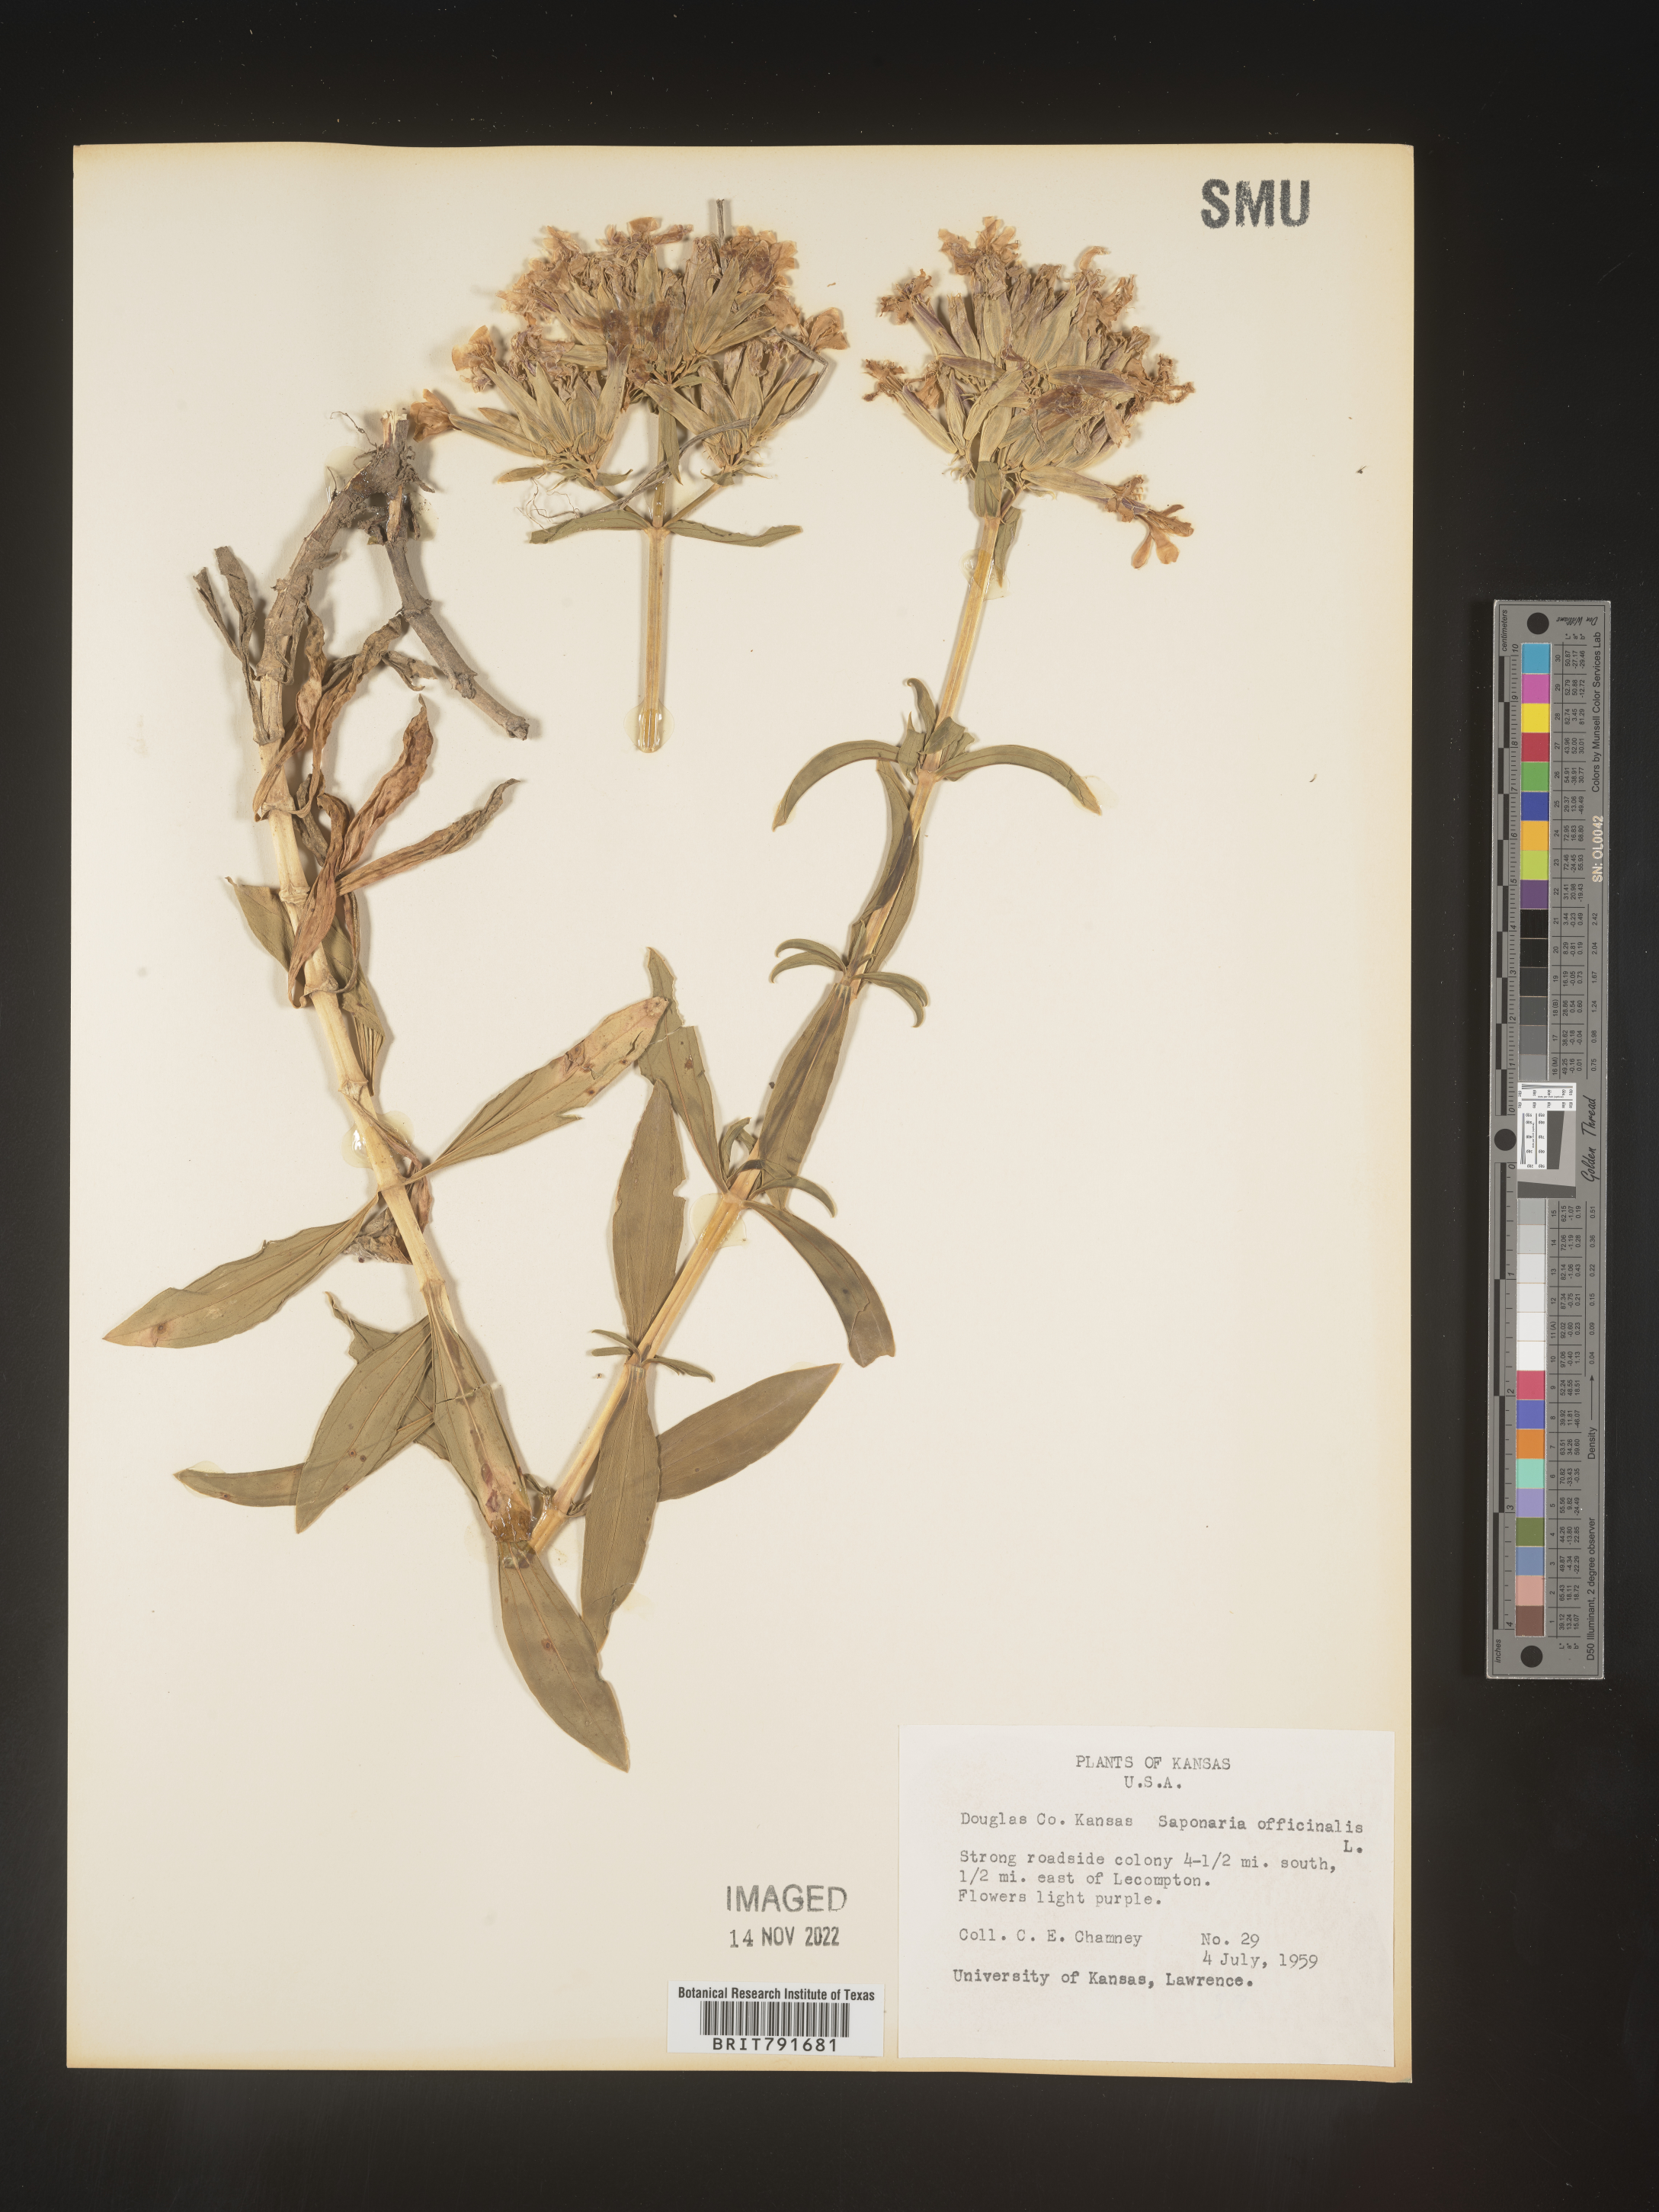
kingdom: Plantae
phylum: Tracheophyta
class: Magnoliopsida
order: Caryophyllales
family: Caryophyllaceae
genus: Saponaria
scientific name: Saponaria officinalis
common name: Soapwort
